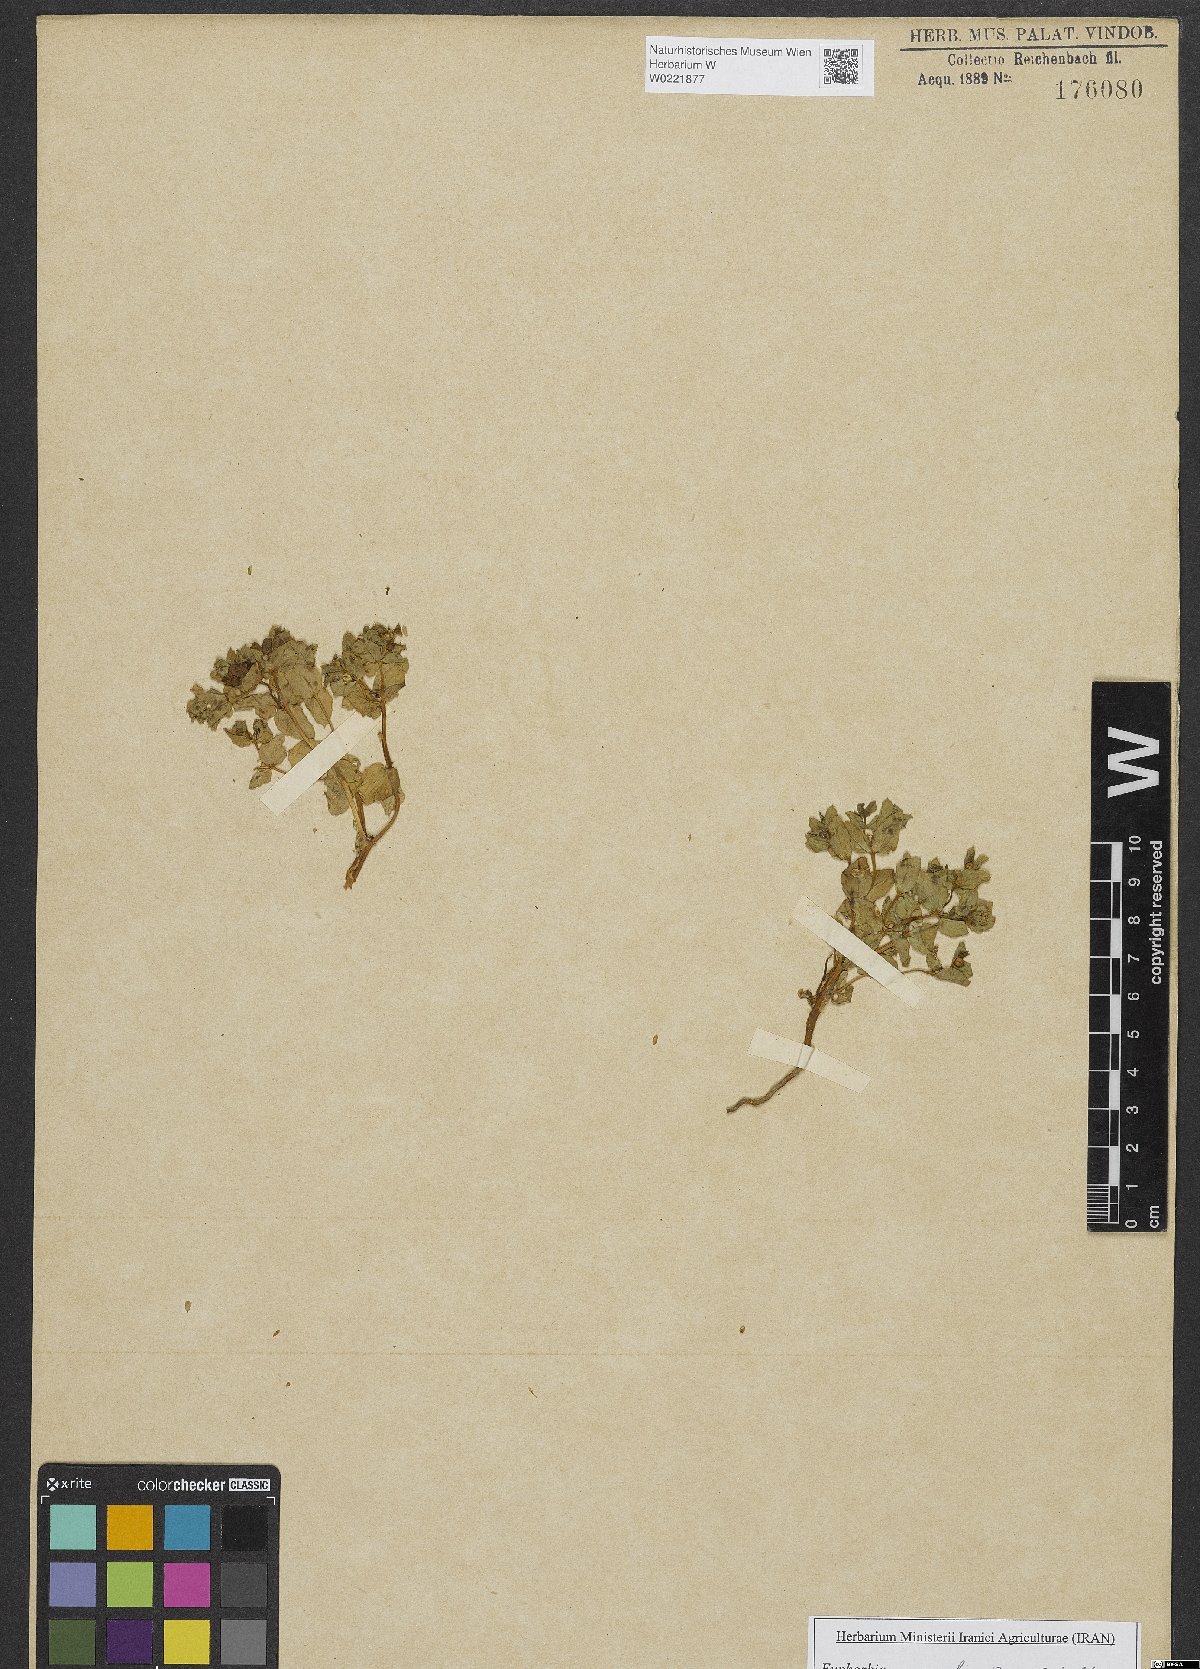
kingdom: Plantae
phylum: Tracheophyta
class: Magnoliopsida
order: Malpighiales
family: Euphorbiaceae
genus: Euphorbia
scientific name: Euphorbia arvalis
